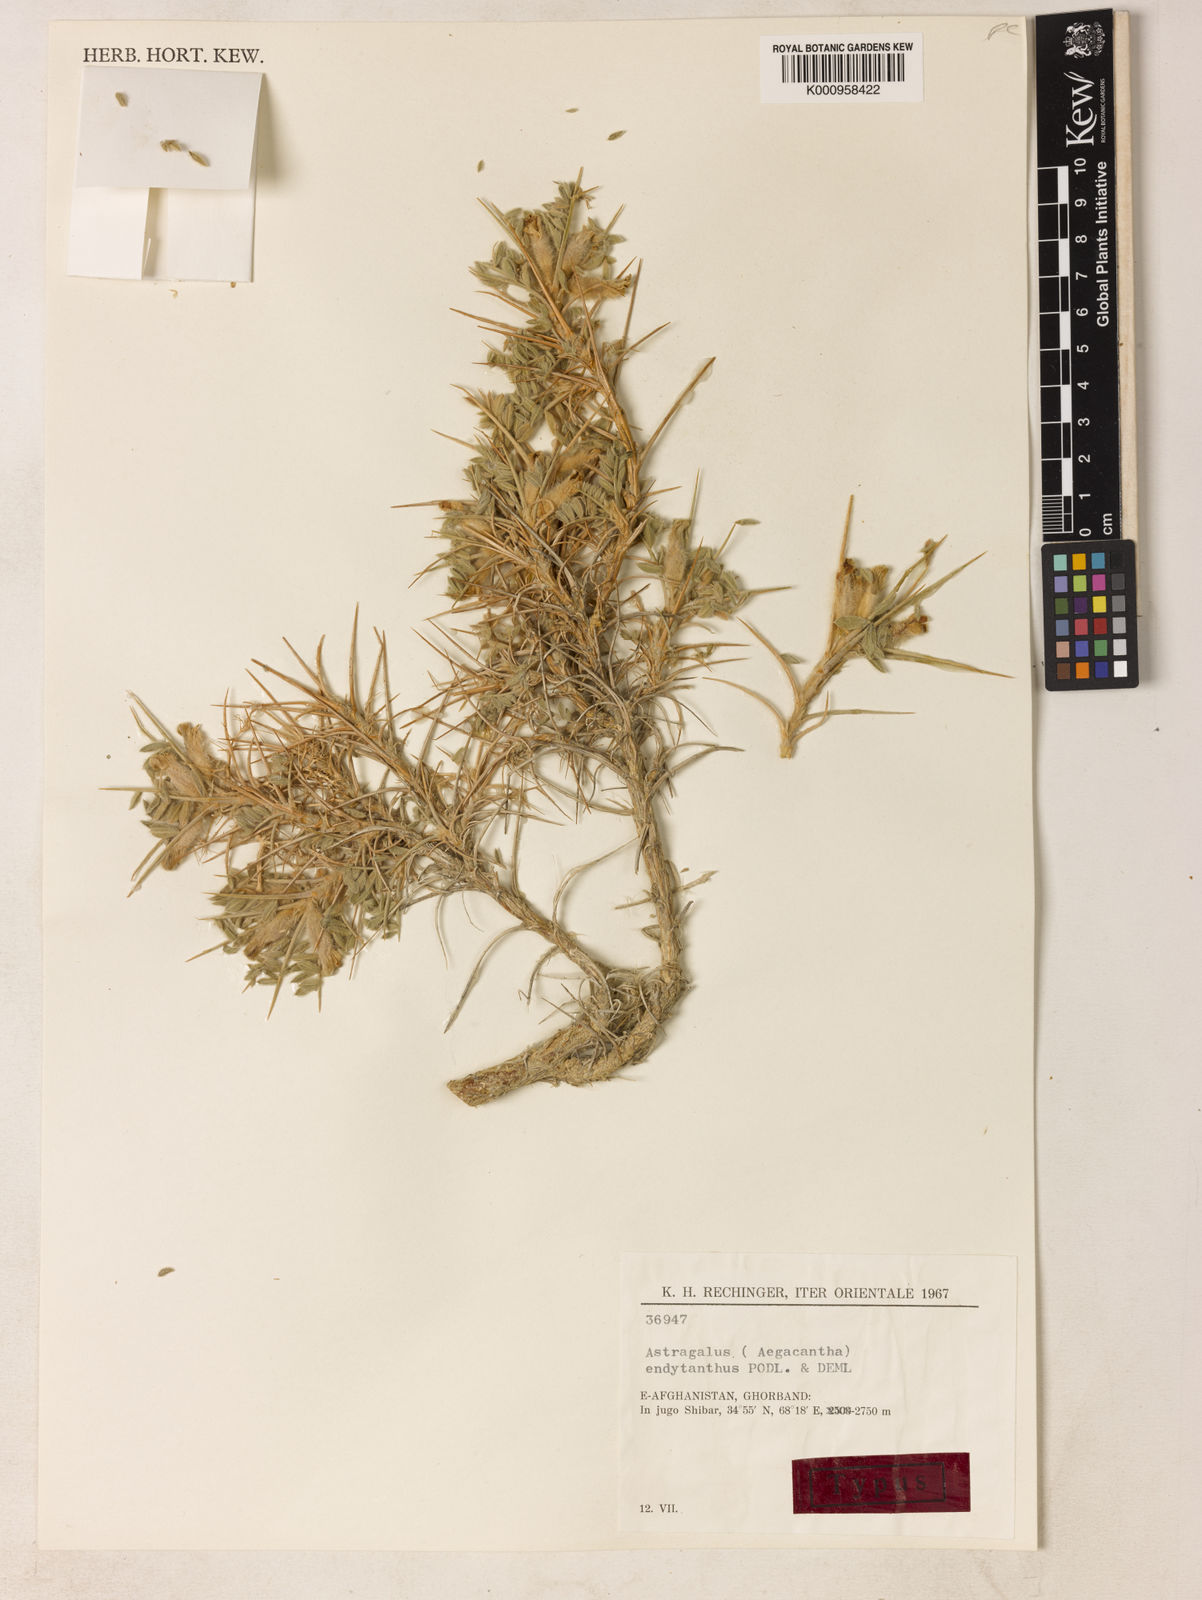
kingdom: Plantae
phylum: Tracheophyta
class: Magnoliopsida
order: Fabales
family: Fabaceae
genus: Astragalus
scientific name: Astragalus
